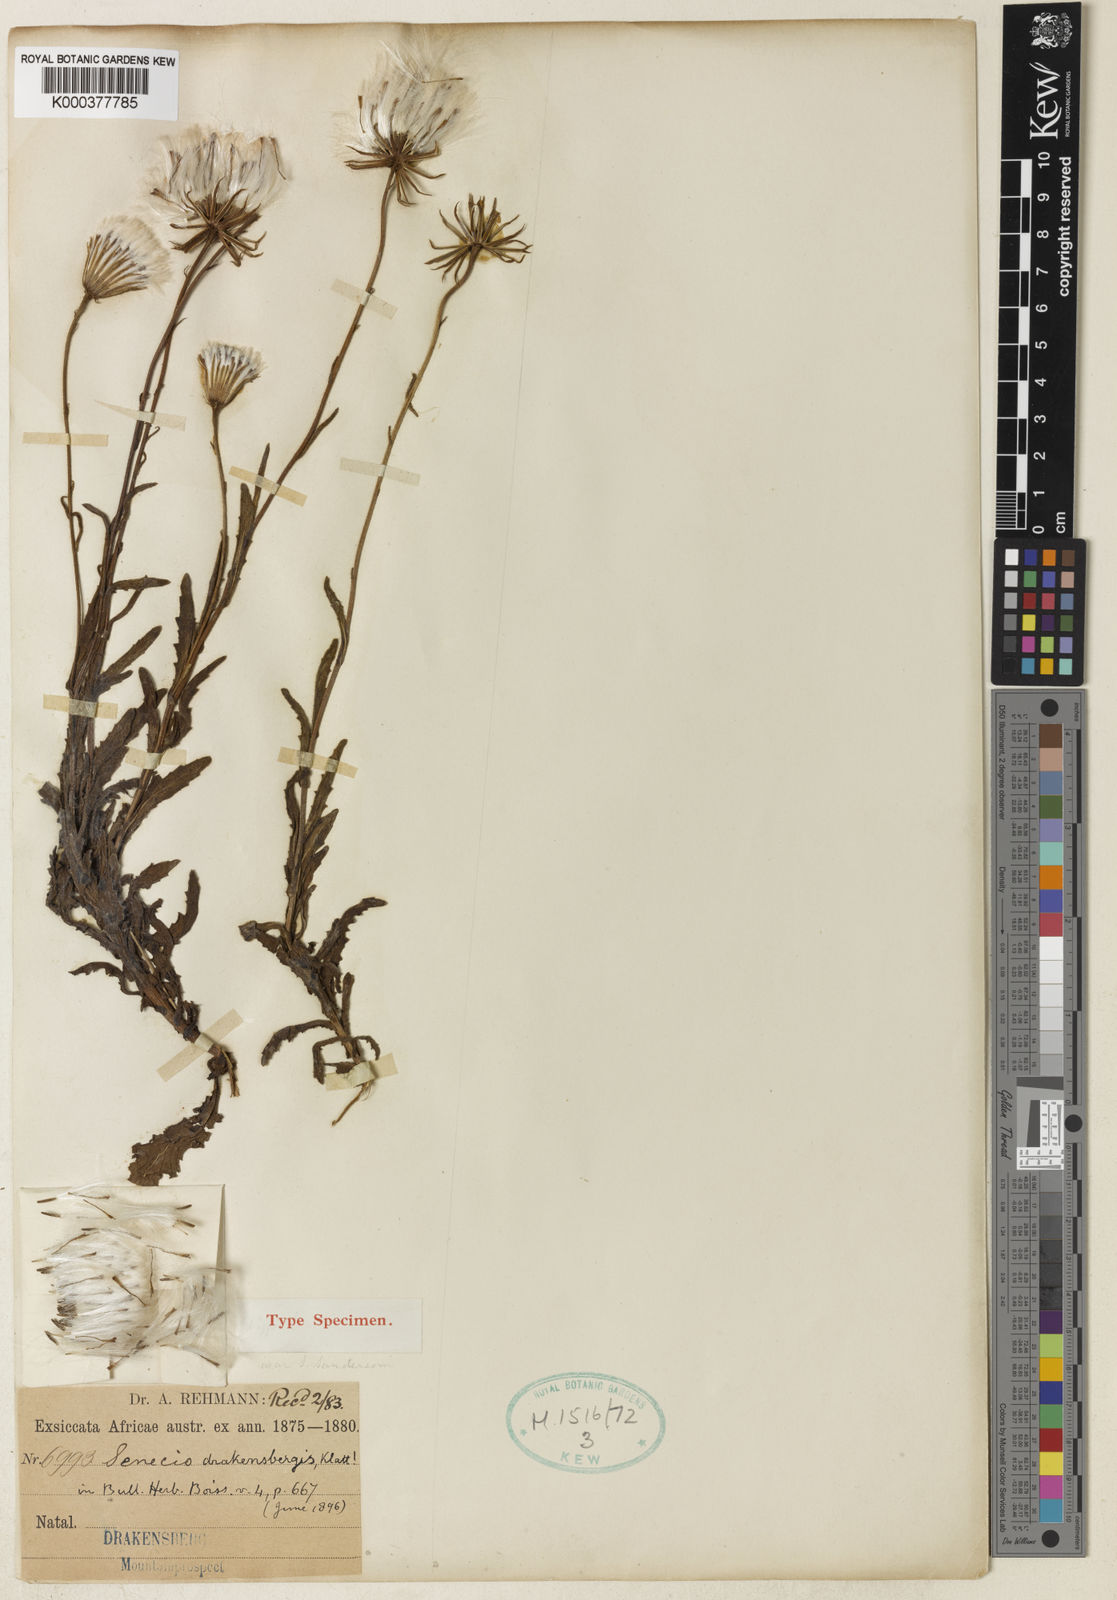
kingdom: Plantae
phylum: Tracheophyta
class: Magnoliopsida
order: Asterales
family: Asteraceae
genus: Senecio
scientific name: Senecio sandersonii
